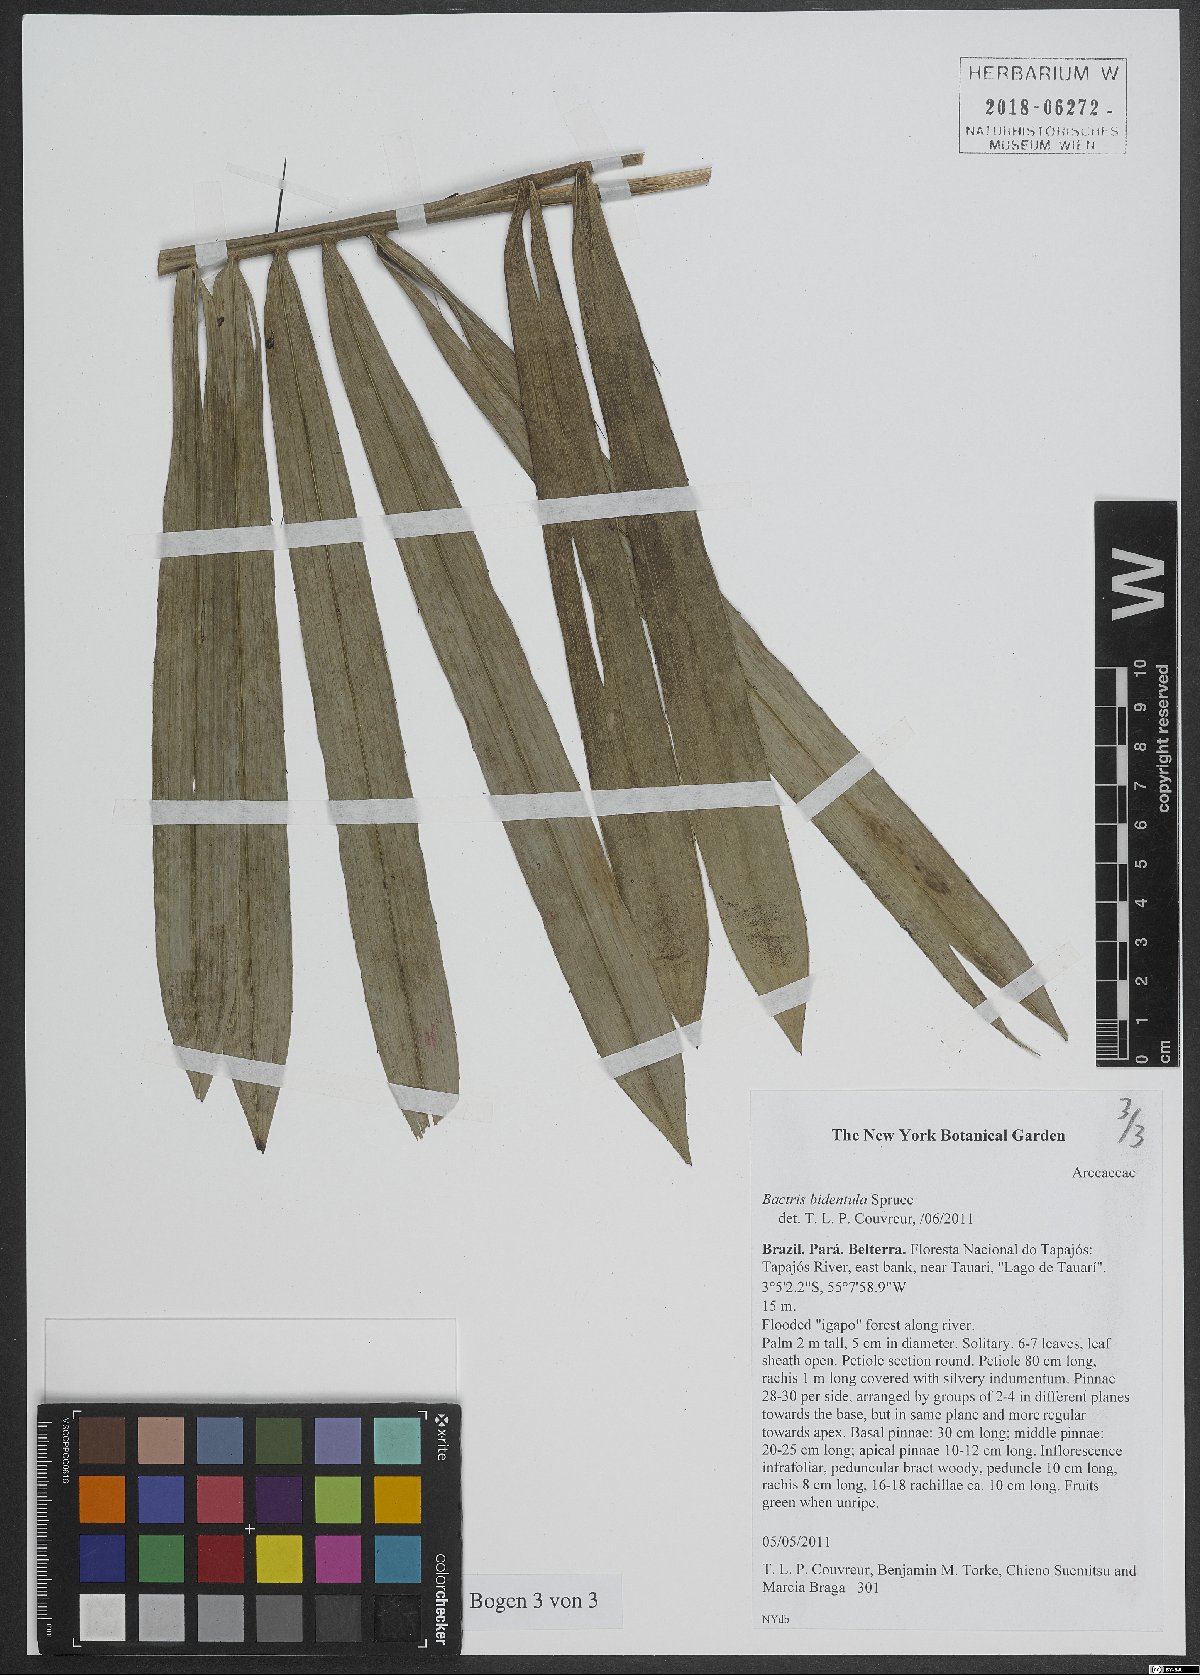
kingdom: Plantae
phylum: Tracheophyta
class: Liliopsida
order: Arecales
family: Arecaceae
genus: Bactris
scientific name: Bactris bidentula
